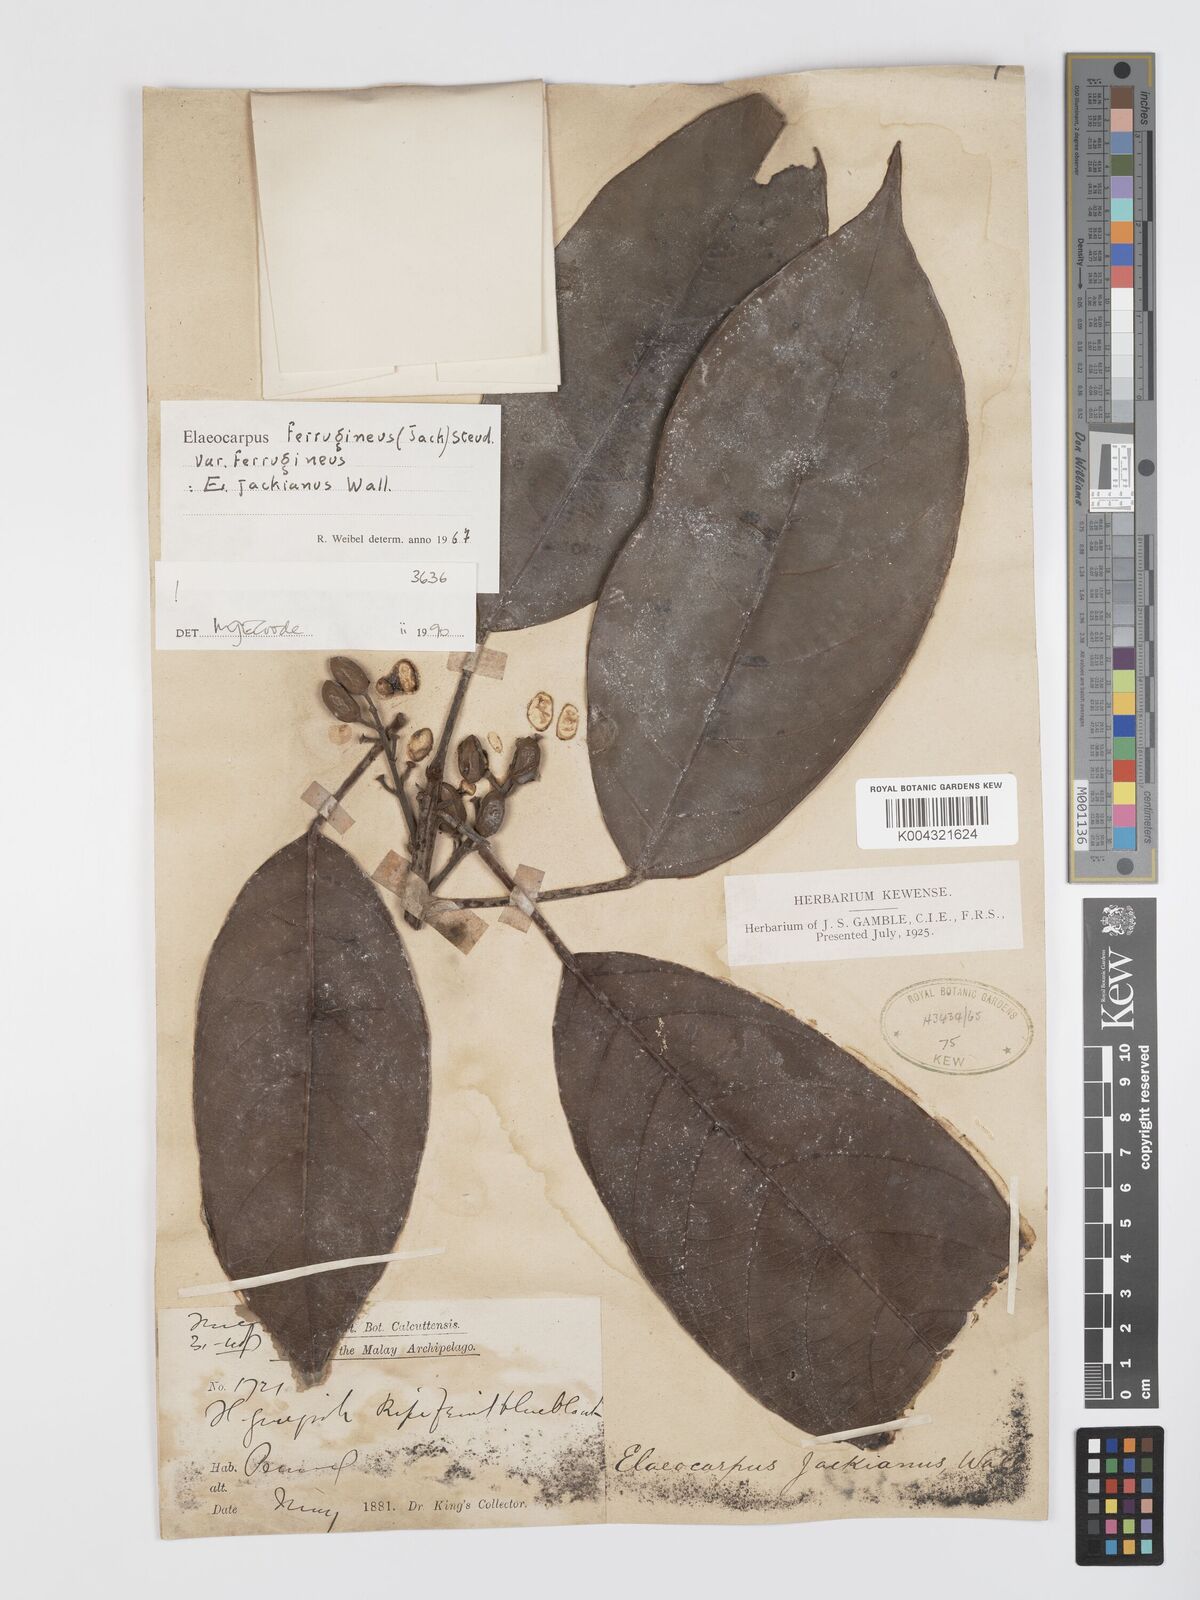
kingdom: Plantae
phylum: Tracheophyta
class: Magnoliopsida
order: Oxalidales
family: Elaeocarpaceae
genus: Elaeocarpus
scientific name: Elaeocarpus ferrugineus
